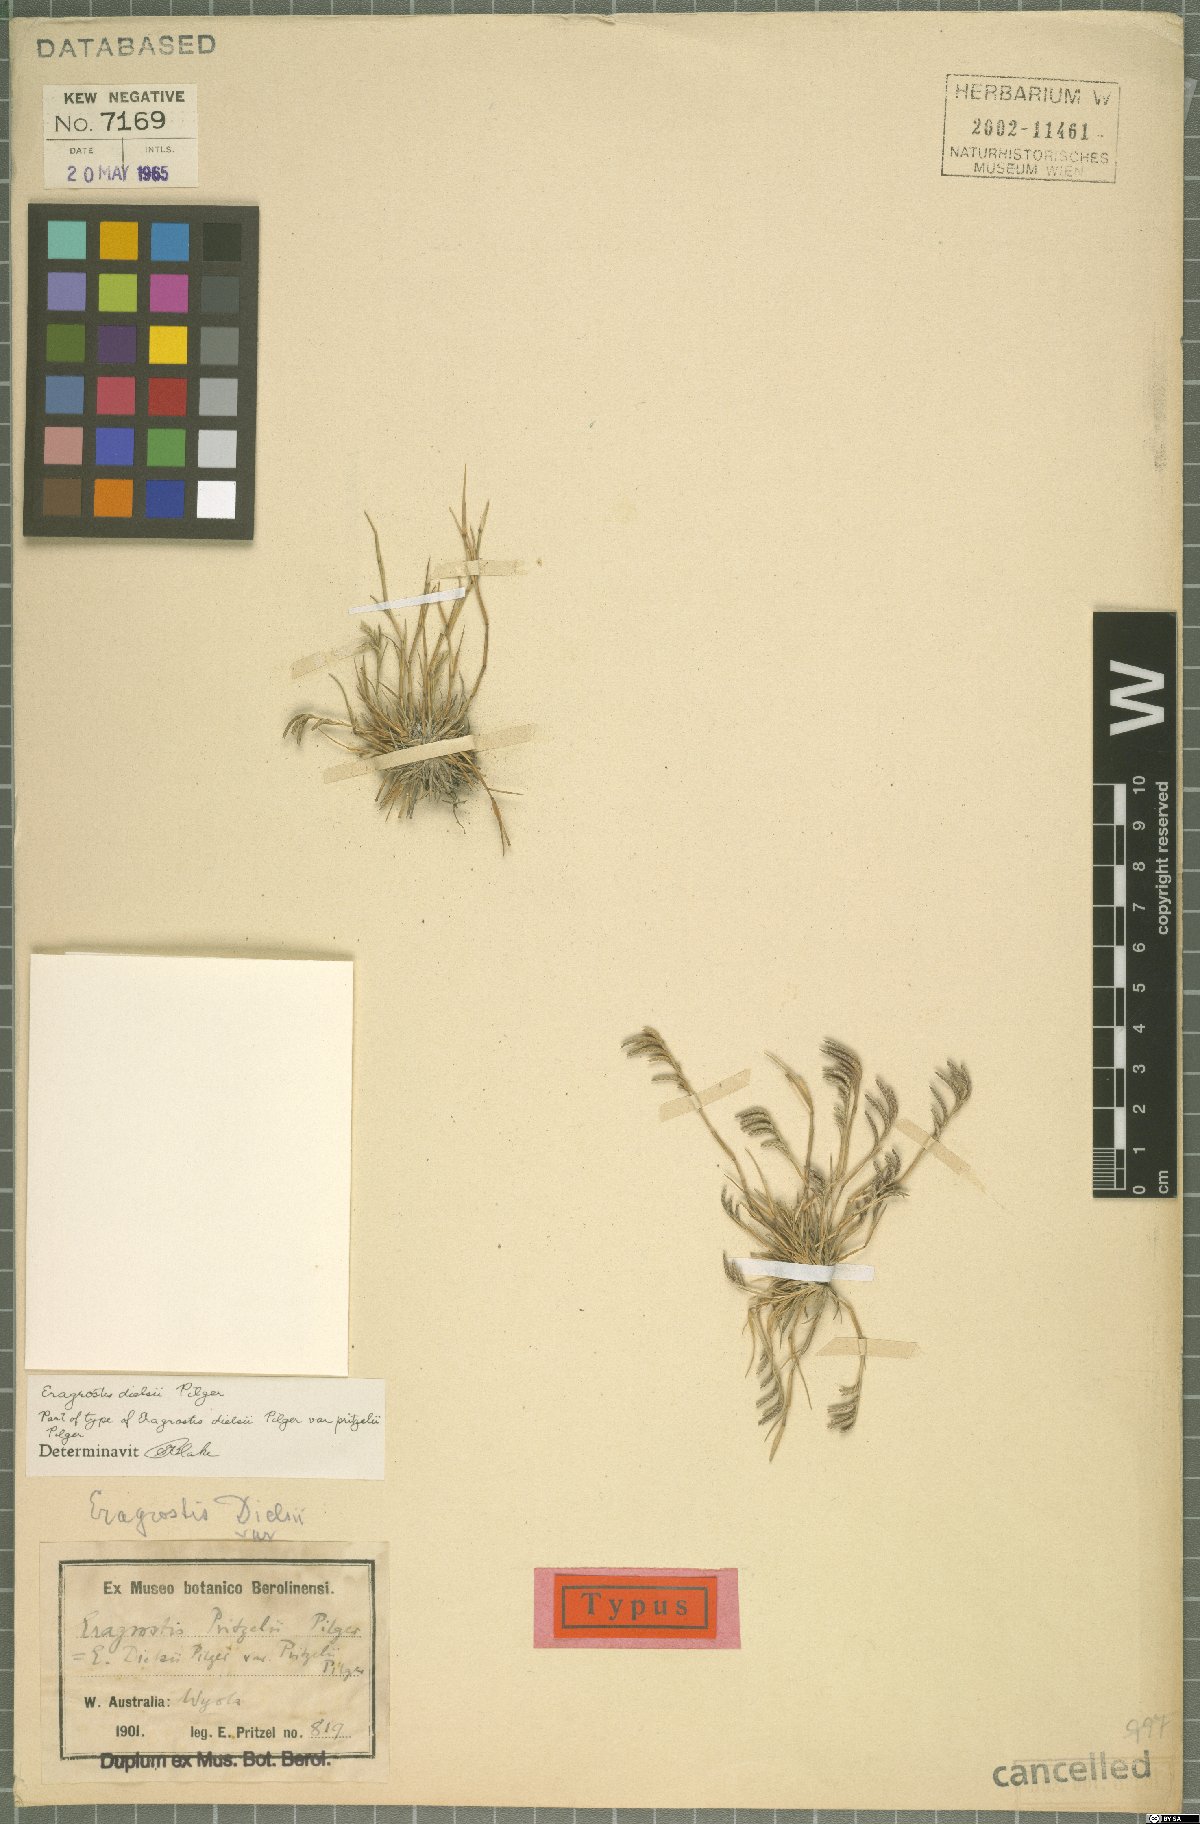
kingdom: Plantae
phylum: Tracheophyta
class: Liliopsida
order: Poales
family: Poaceae
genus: Eragrostis
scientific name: Eragrostis dielsii
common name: Lovegrass
